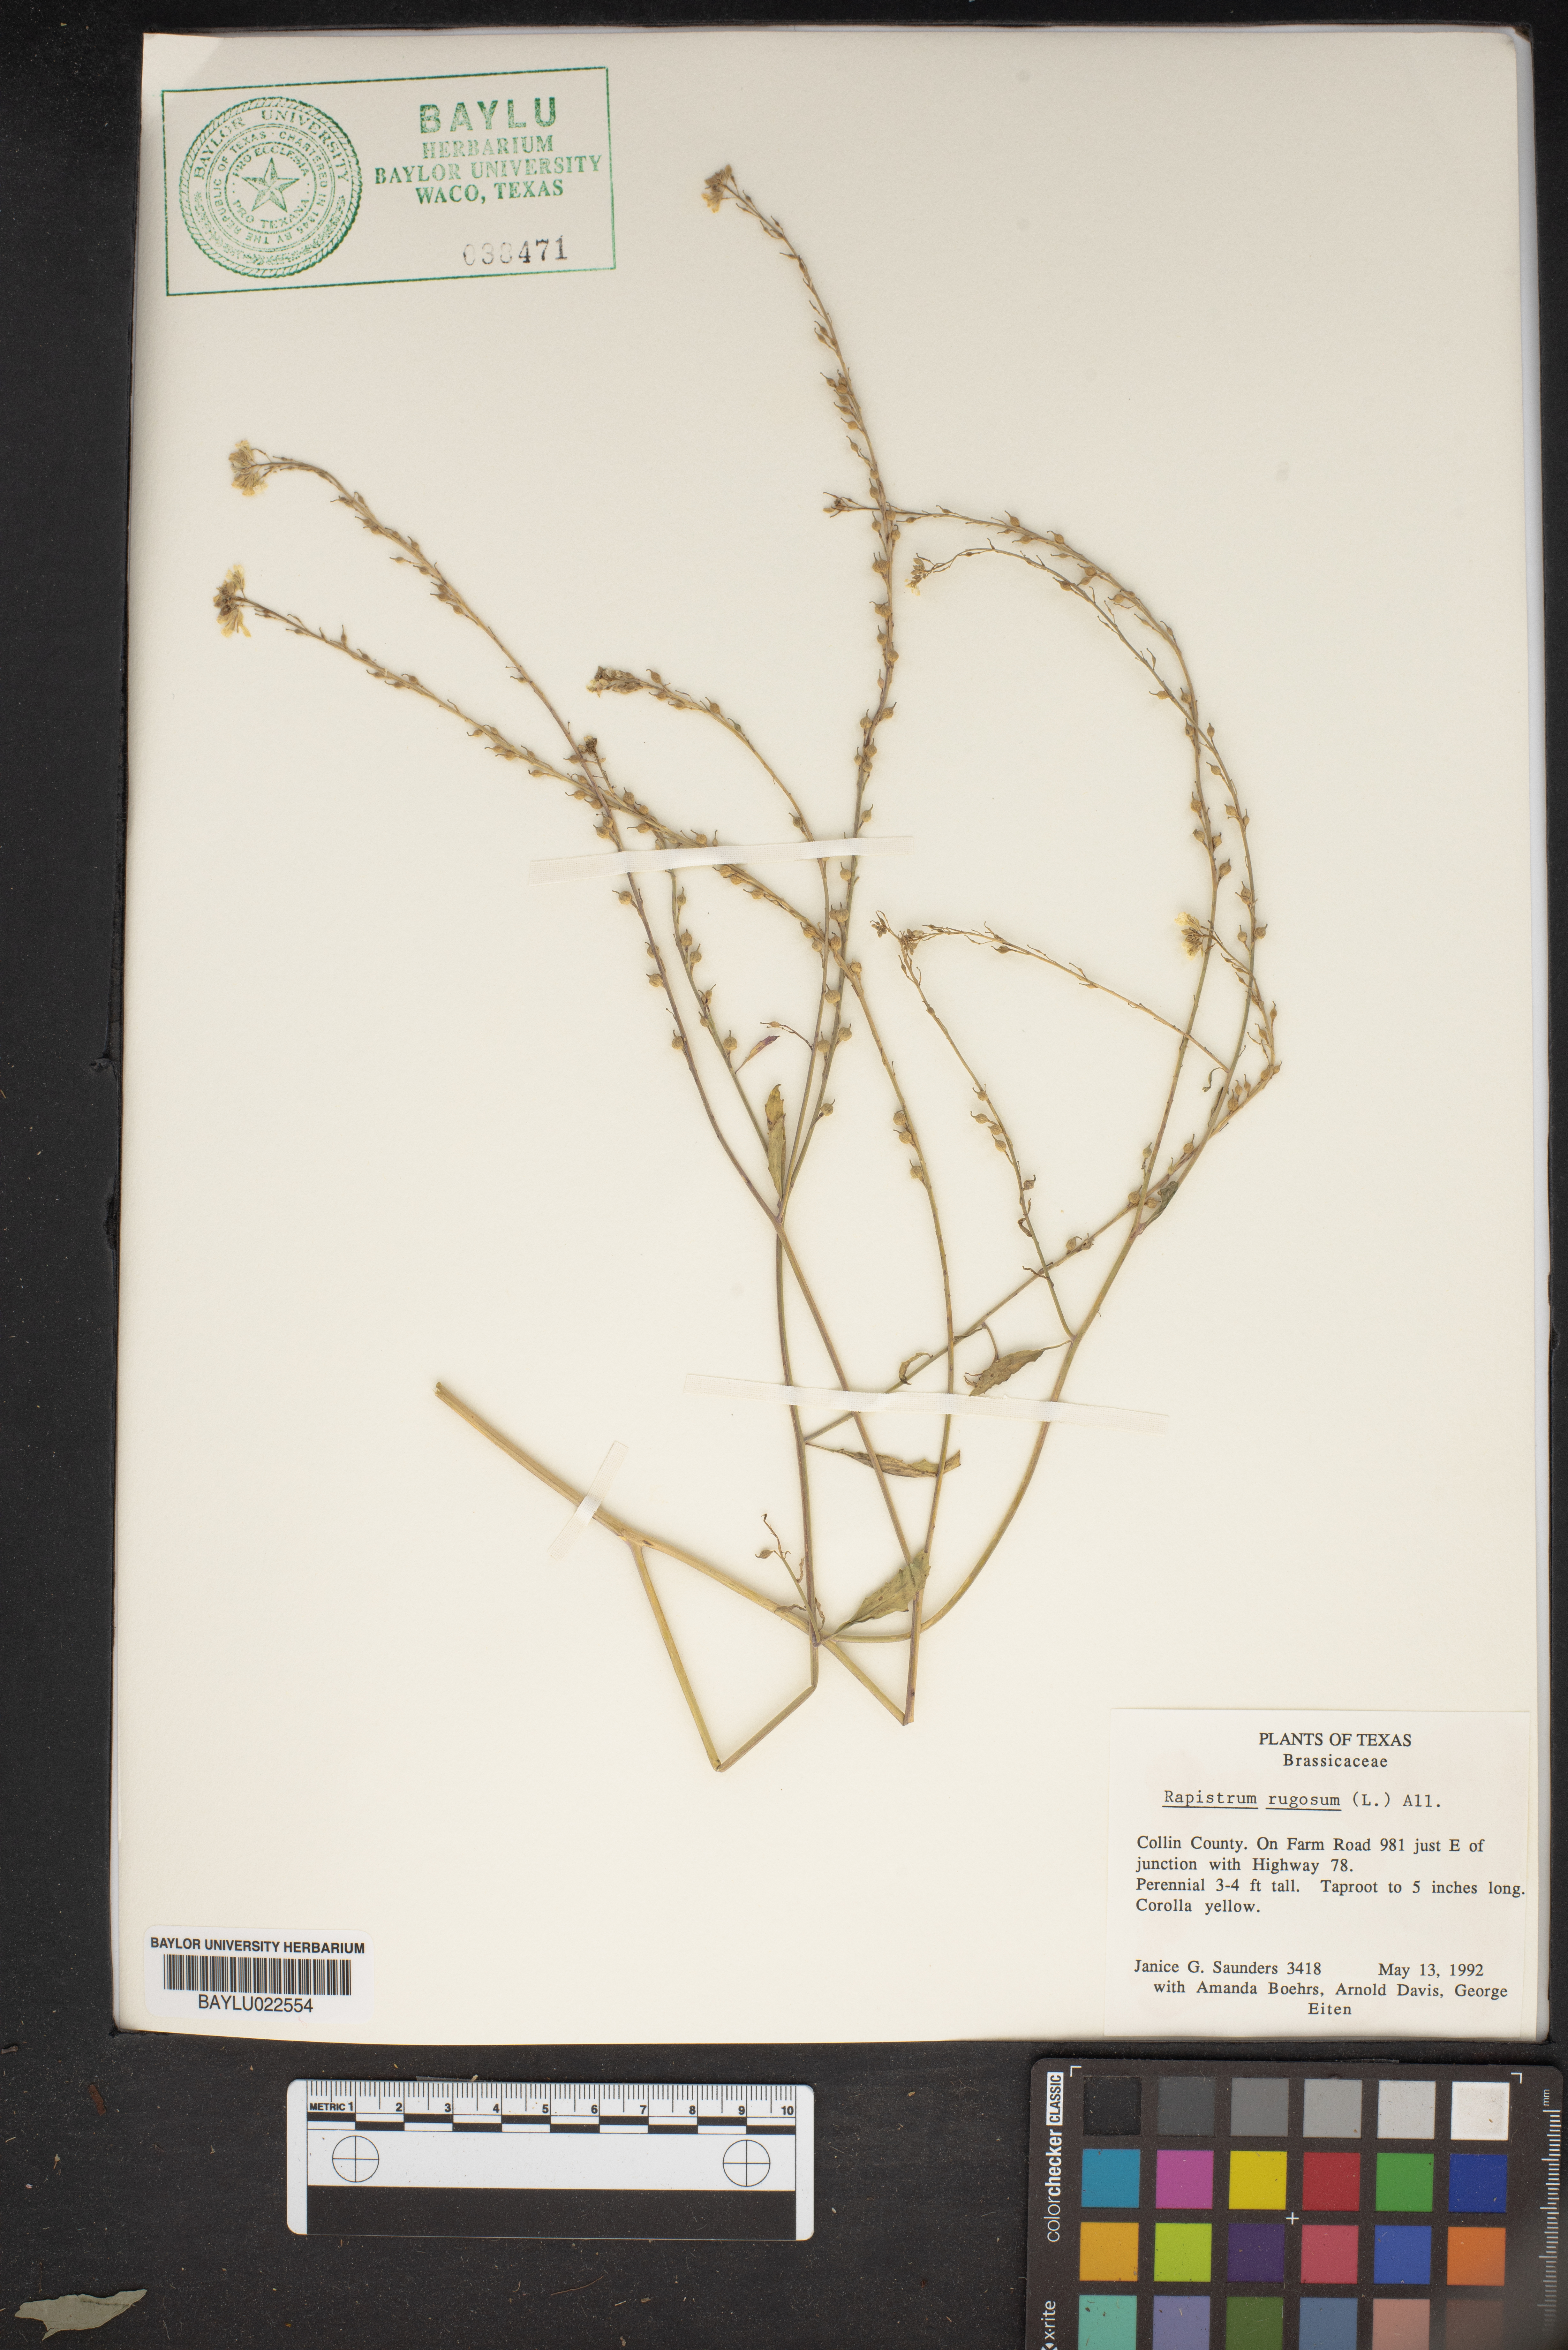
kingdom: Plantae
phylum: Tracheophyta
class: Magnoliopsida
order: Brassicales
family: Brassicaceae
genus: Rapistrum
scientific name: Rapistrum rugosum
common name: Annual bastardcabbage
